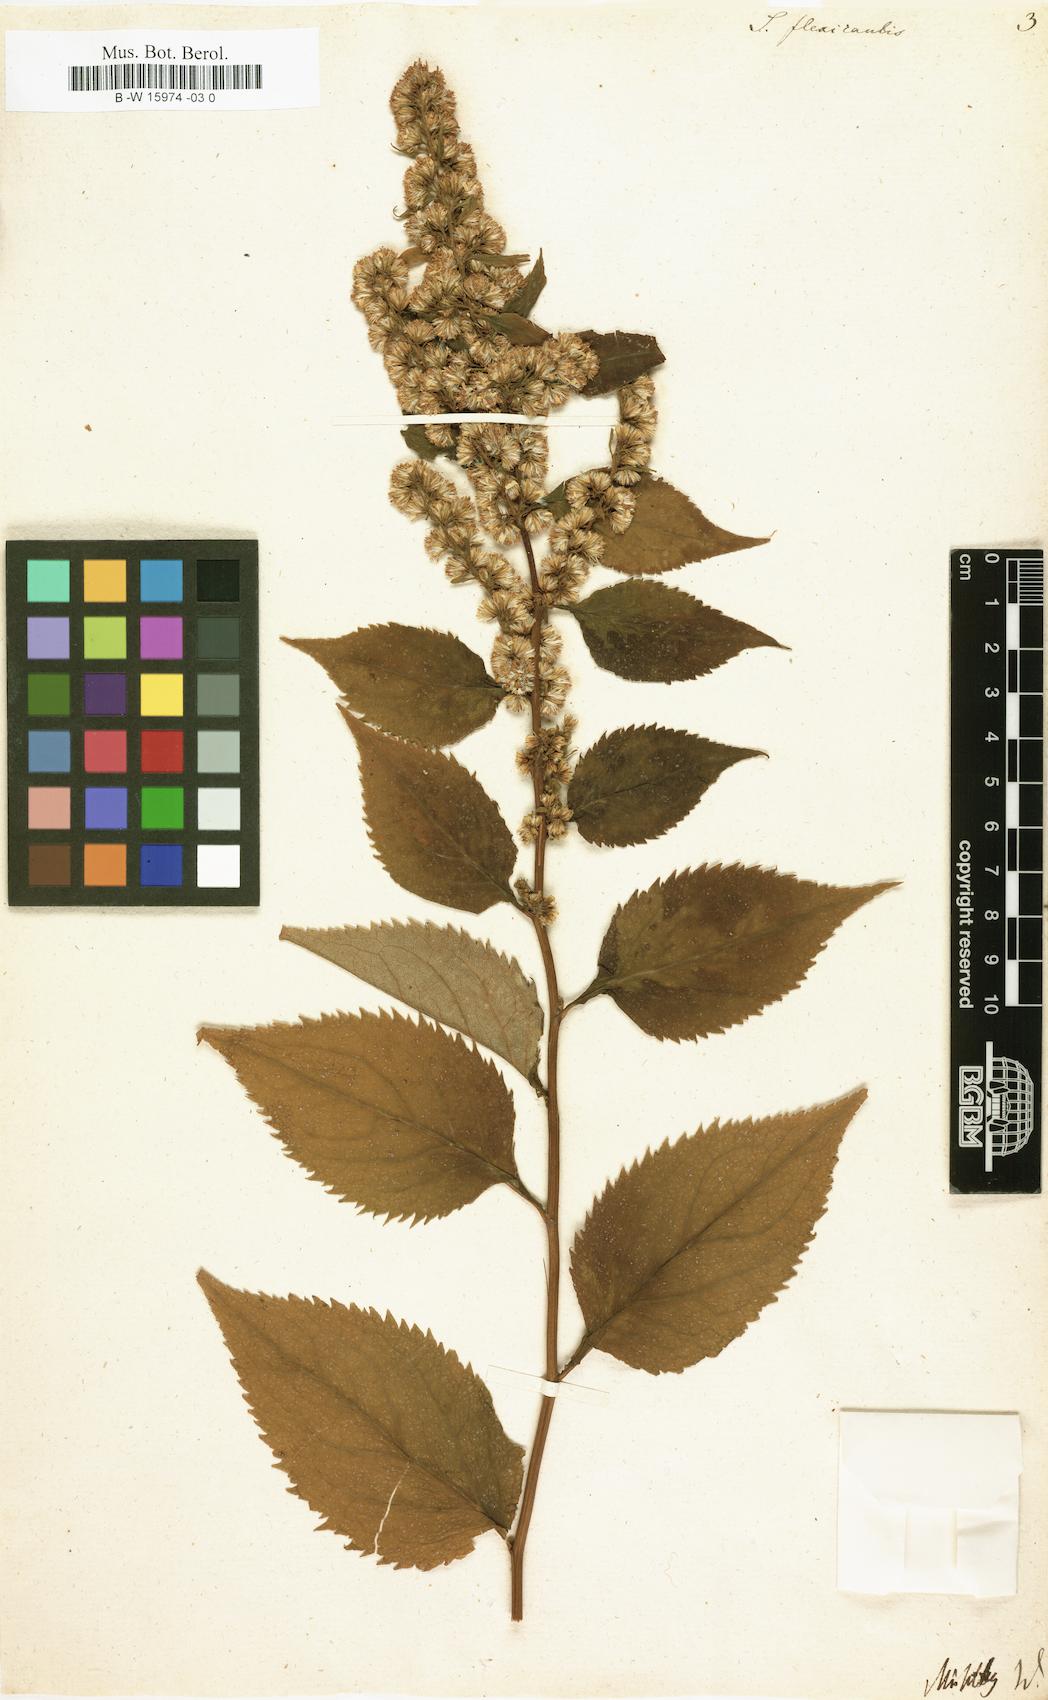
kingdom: Plantae
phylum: Tracheophyta
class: Magnoliopsida
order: Asterales
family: Asteraceae
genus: Solidago
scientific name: Solidago flexicaulis
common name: Zig-zag goldenrod
